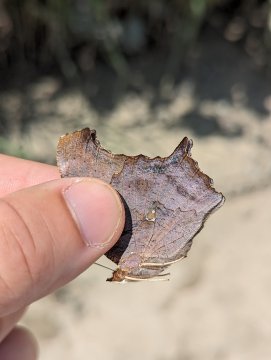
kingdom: Animalia
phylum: Arthropoda
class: Insecta
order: Lepidoptera
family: Nymphalidae
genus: Polygonia
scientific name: Polygonia interrogationis
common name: Question Mark
